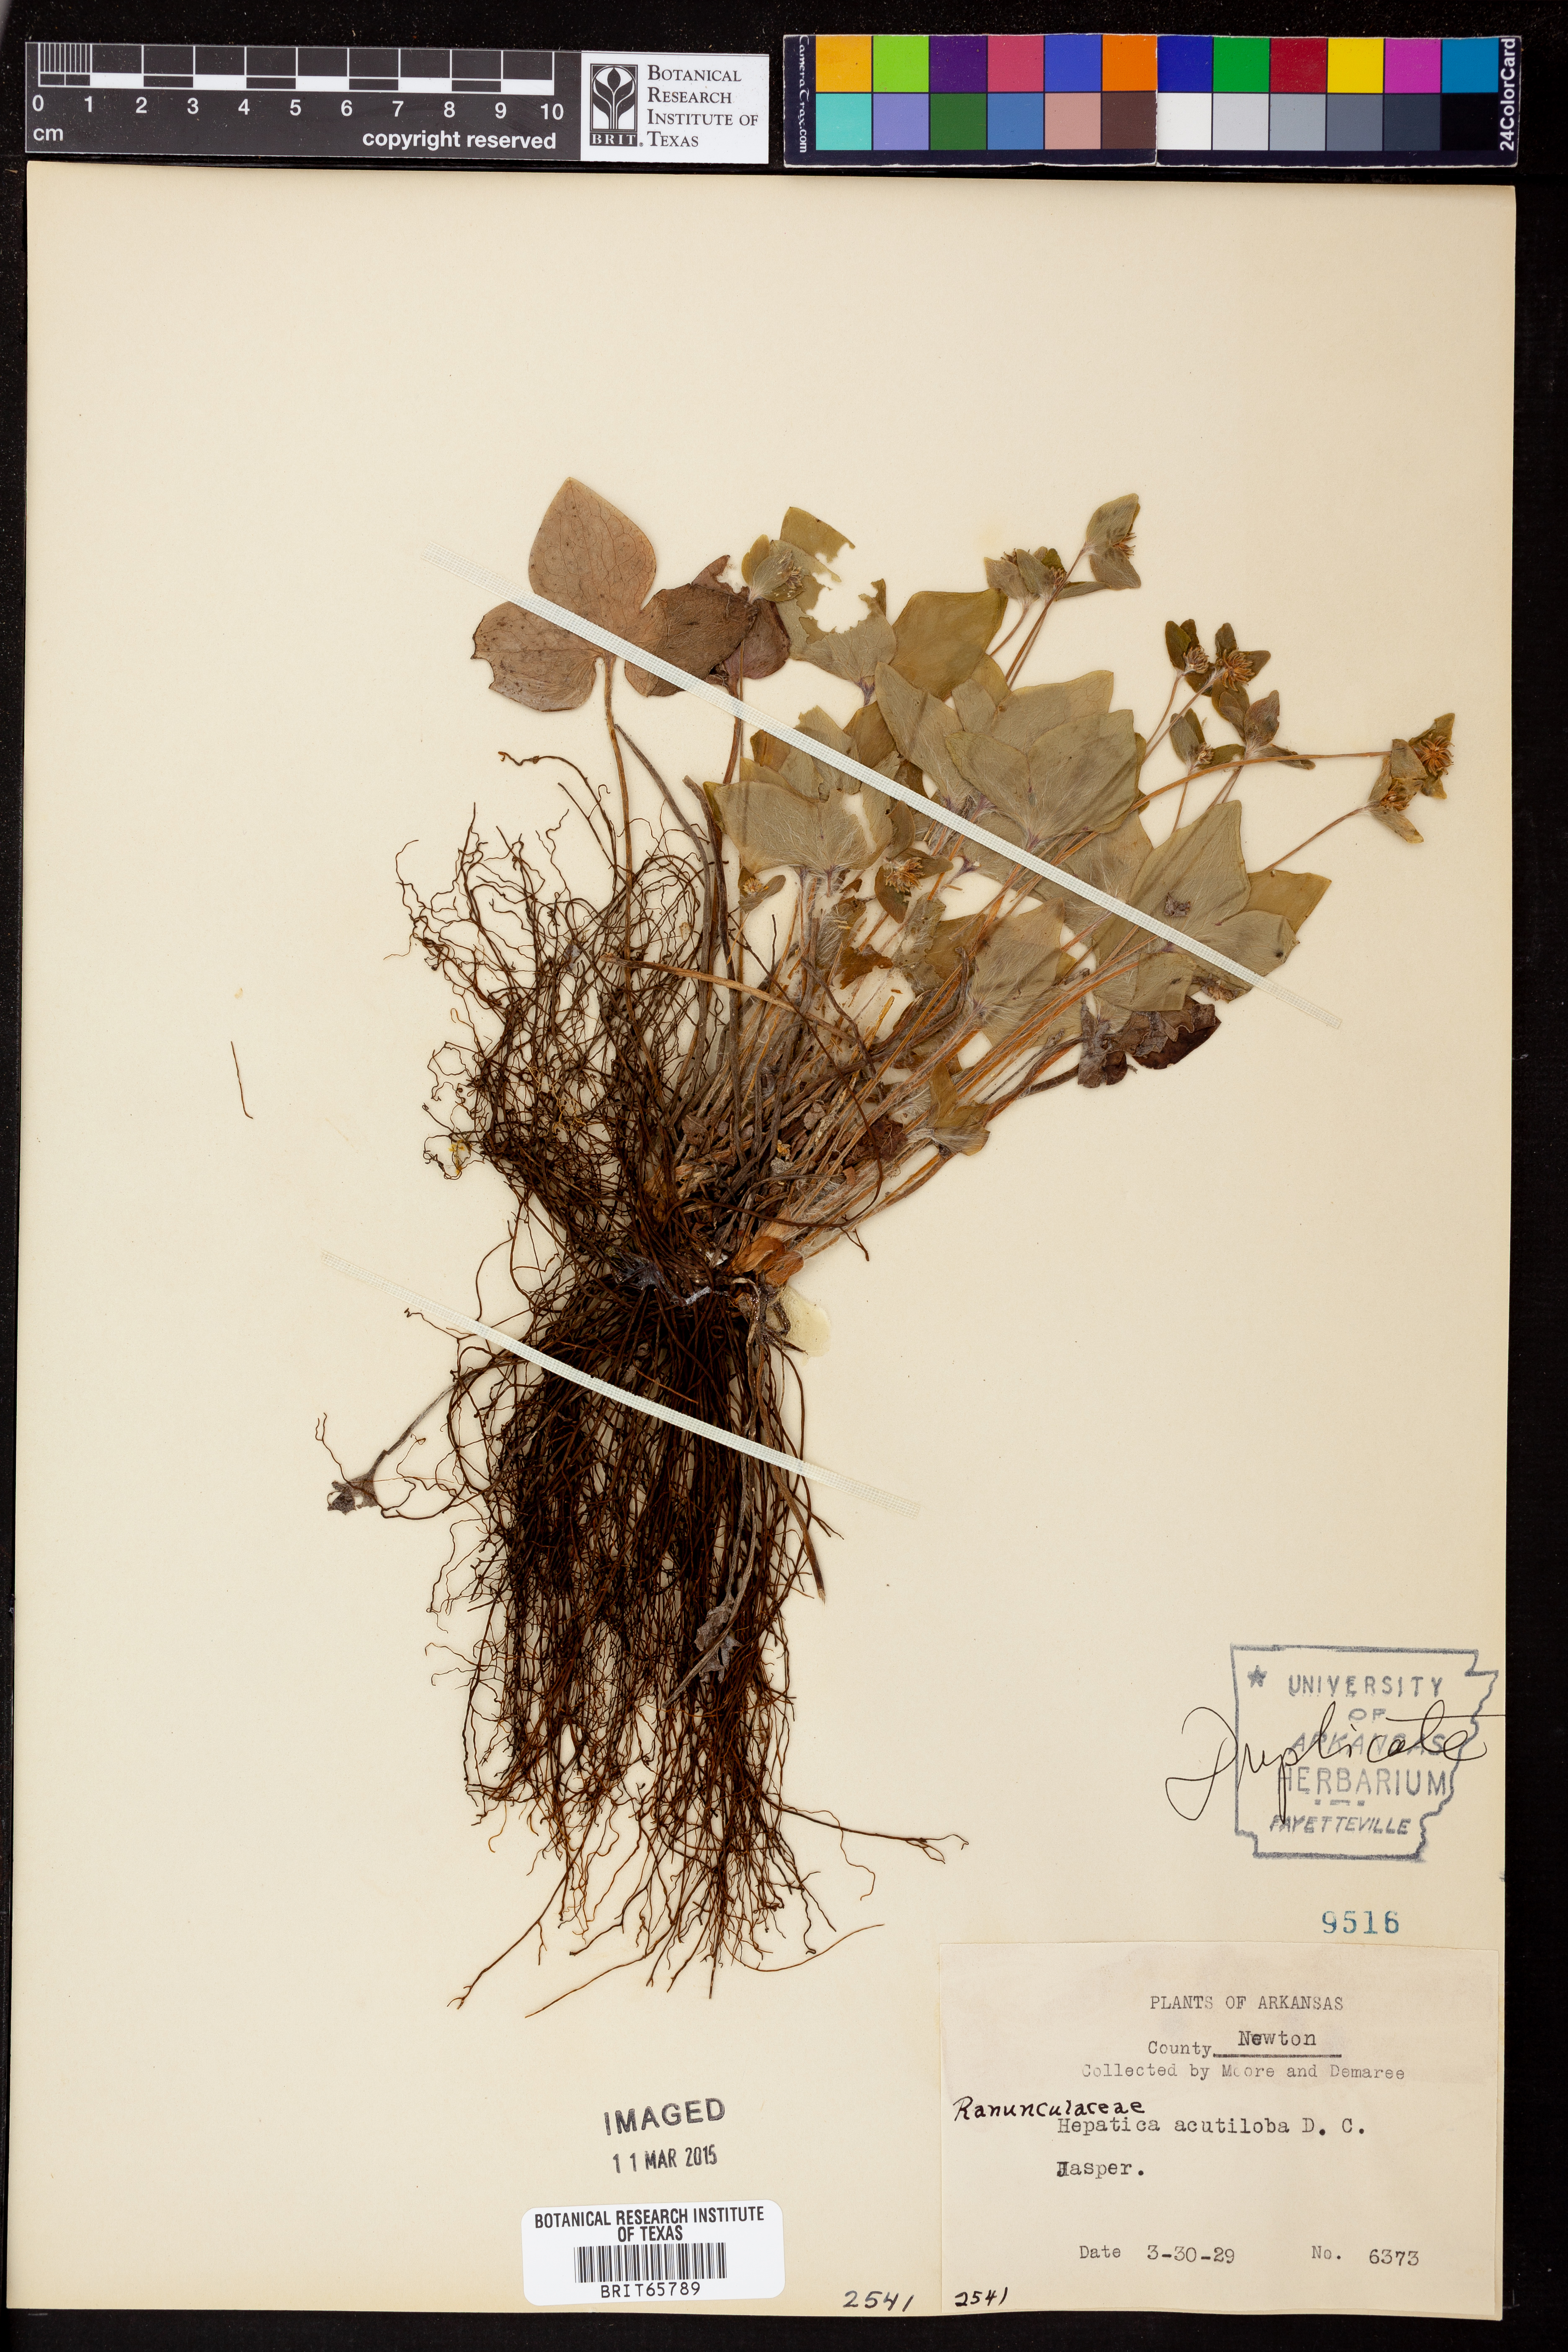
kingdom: Plantae
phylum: Tracheophyta
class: Magnoliopsida
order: Ranunculales
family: Ranunculaceae
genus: Hepatica
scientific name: Hepatica acutiloba
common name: Sharp-lobed hepatica
